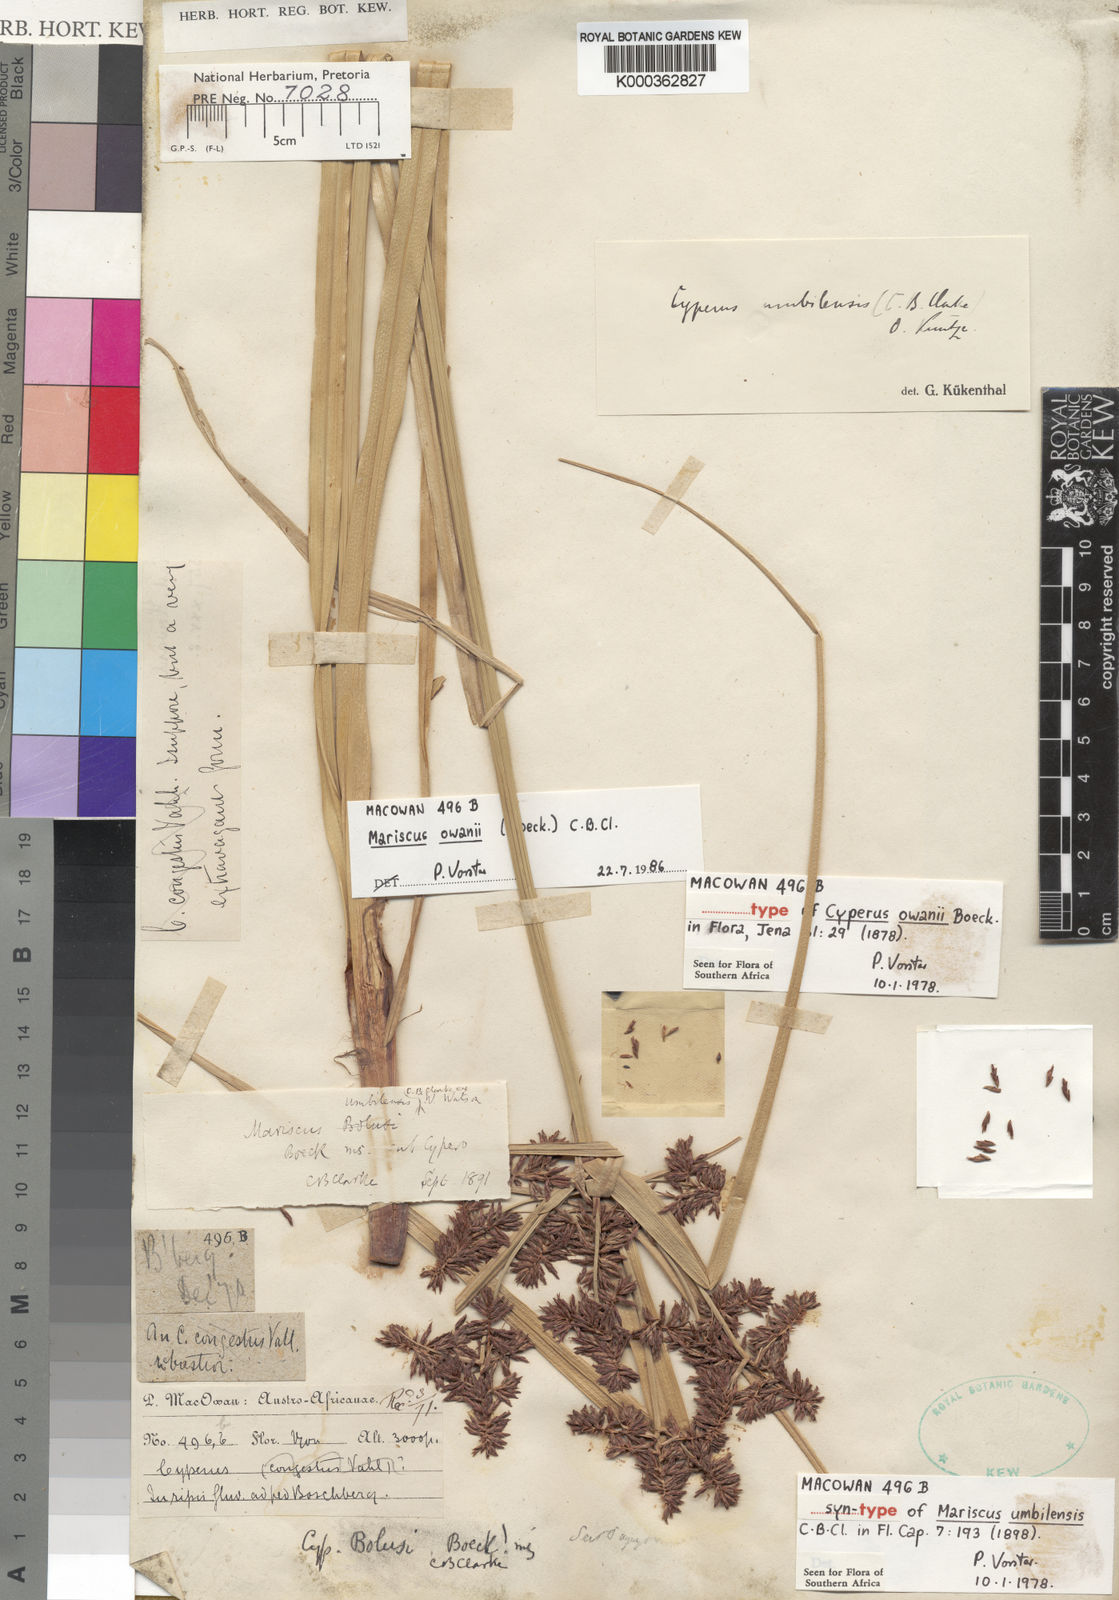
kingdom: Plantae
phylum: Tracheophyta
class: Liliopsida
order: Poales
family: Cyperaceae
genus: Cyperus
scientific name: Cyperus owanii
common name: Owan's flatsedge
